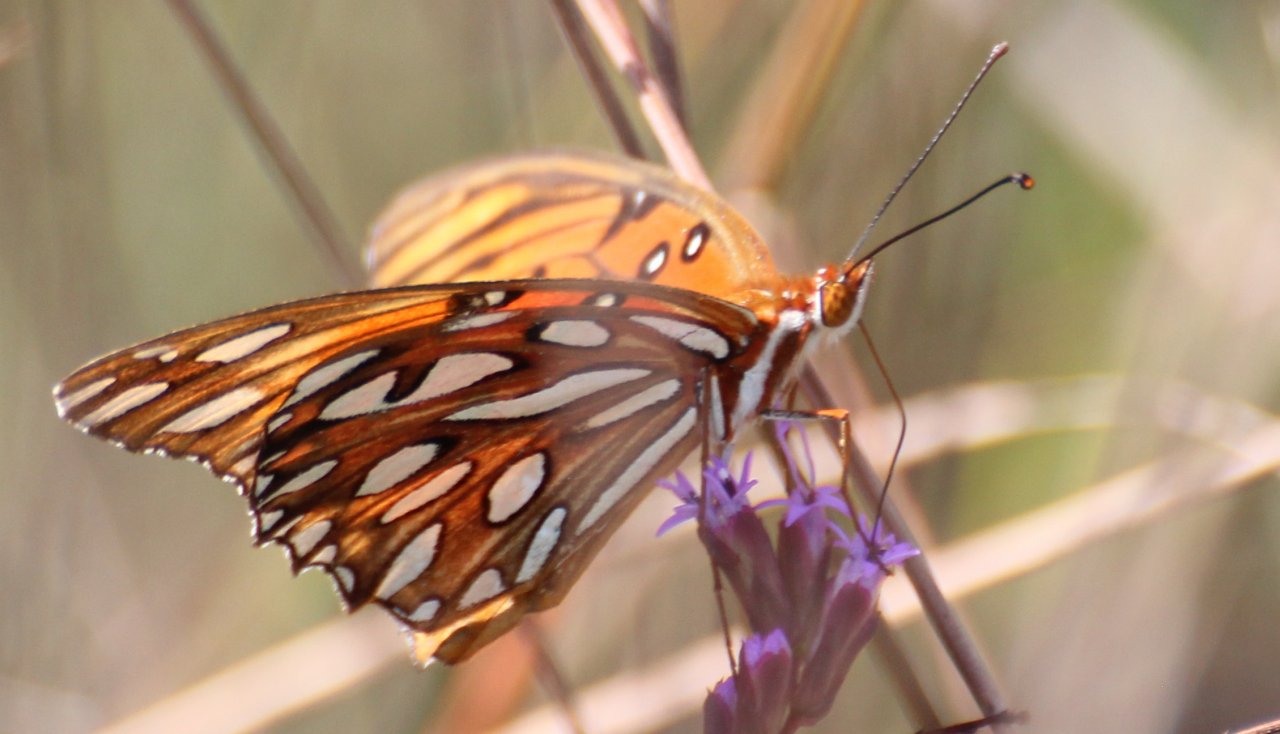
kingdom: Animalia
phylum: Arthropoda
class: Insecta
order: Lepidoptera
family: Nymphalidae
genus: Dione
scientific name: Dione vanillae
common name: Gulf Fritillary
